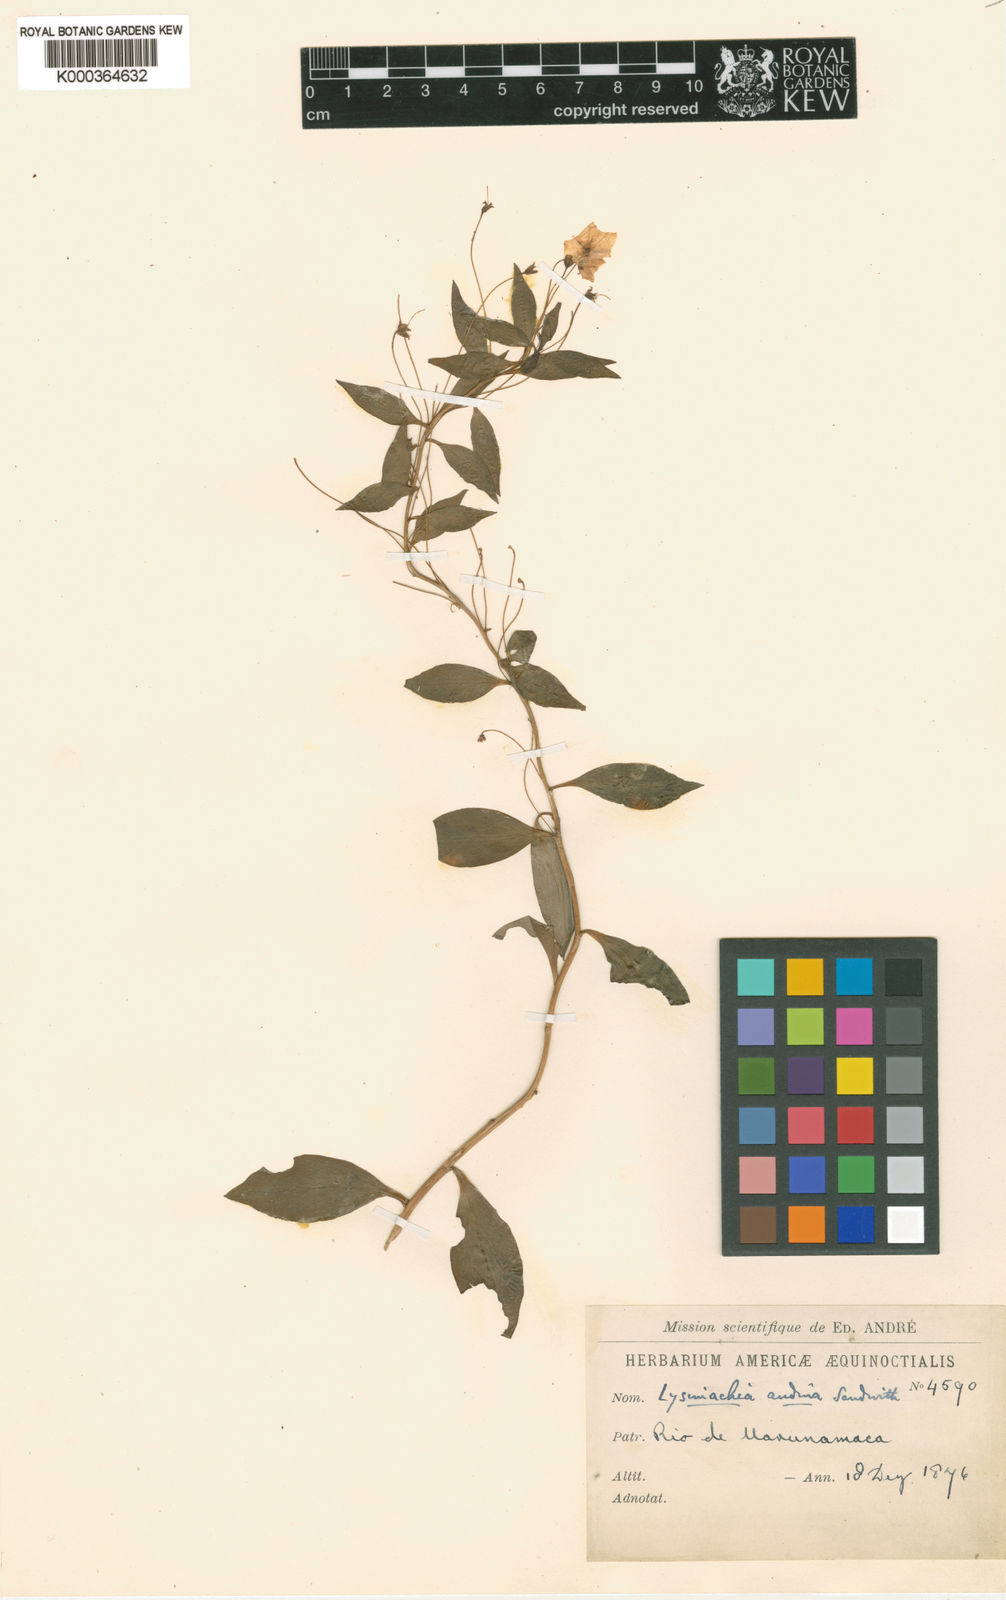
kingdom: Plantae
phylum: Tracheophyta
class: Magnoliopsida
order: Ericales
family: Primulaceae
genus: Lysimachia
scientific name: Lysimachia andina
